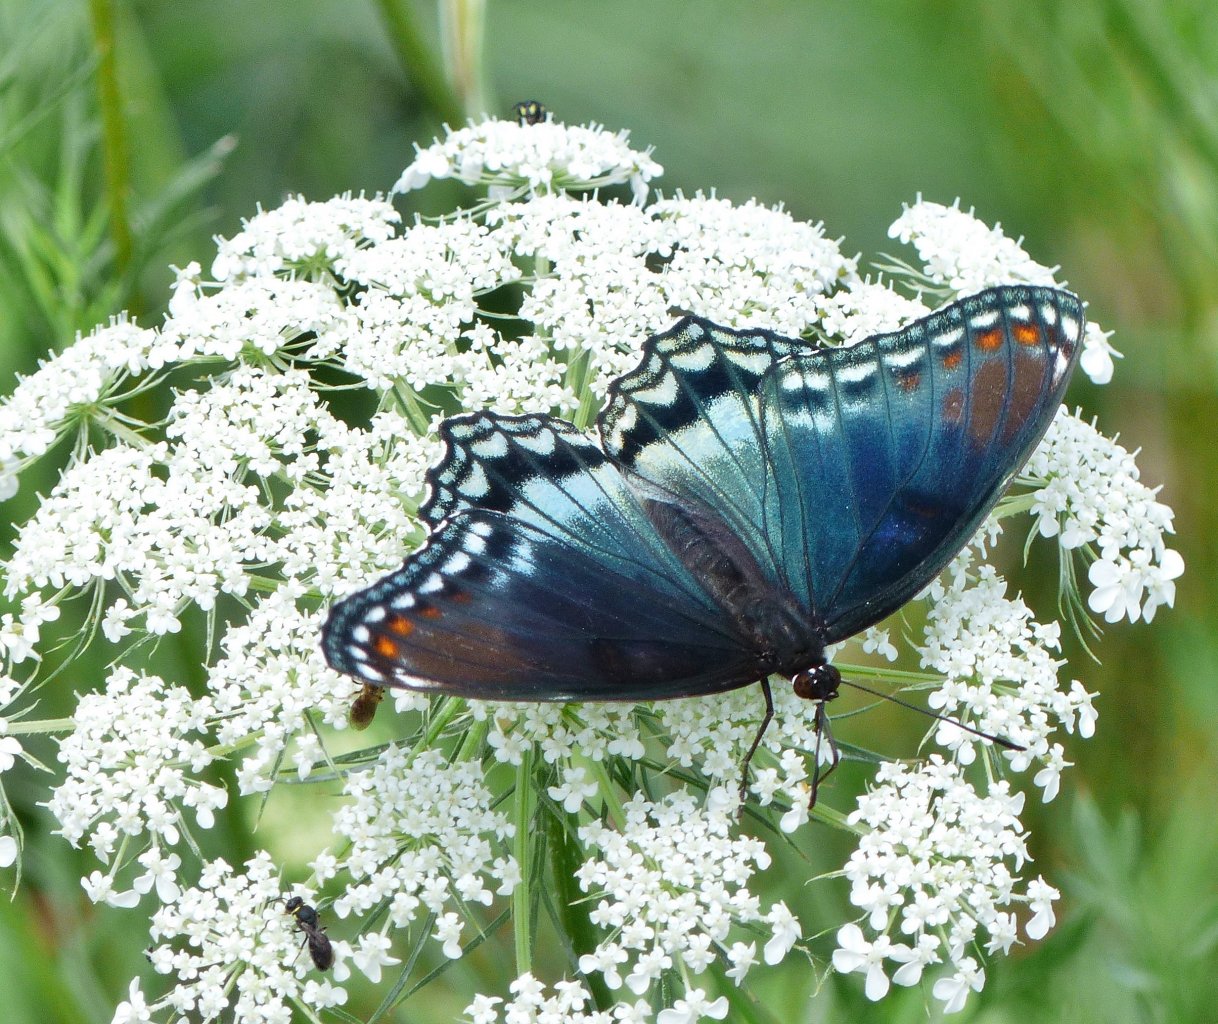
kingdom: Animalia
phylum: Arthropoda
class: Insecta
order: Lepidoptera
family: Nymphalidae
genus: Limenitis
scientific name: Limenitis astyanax
